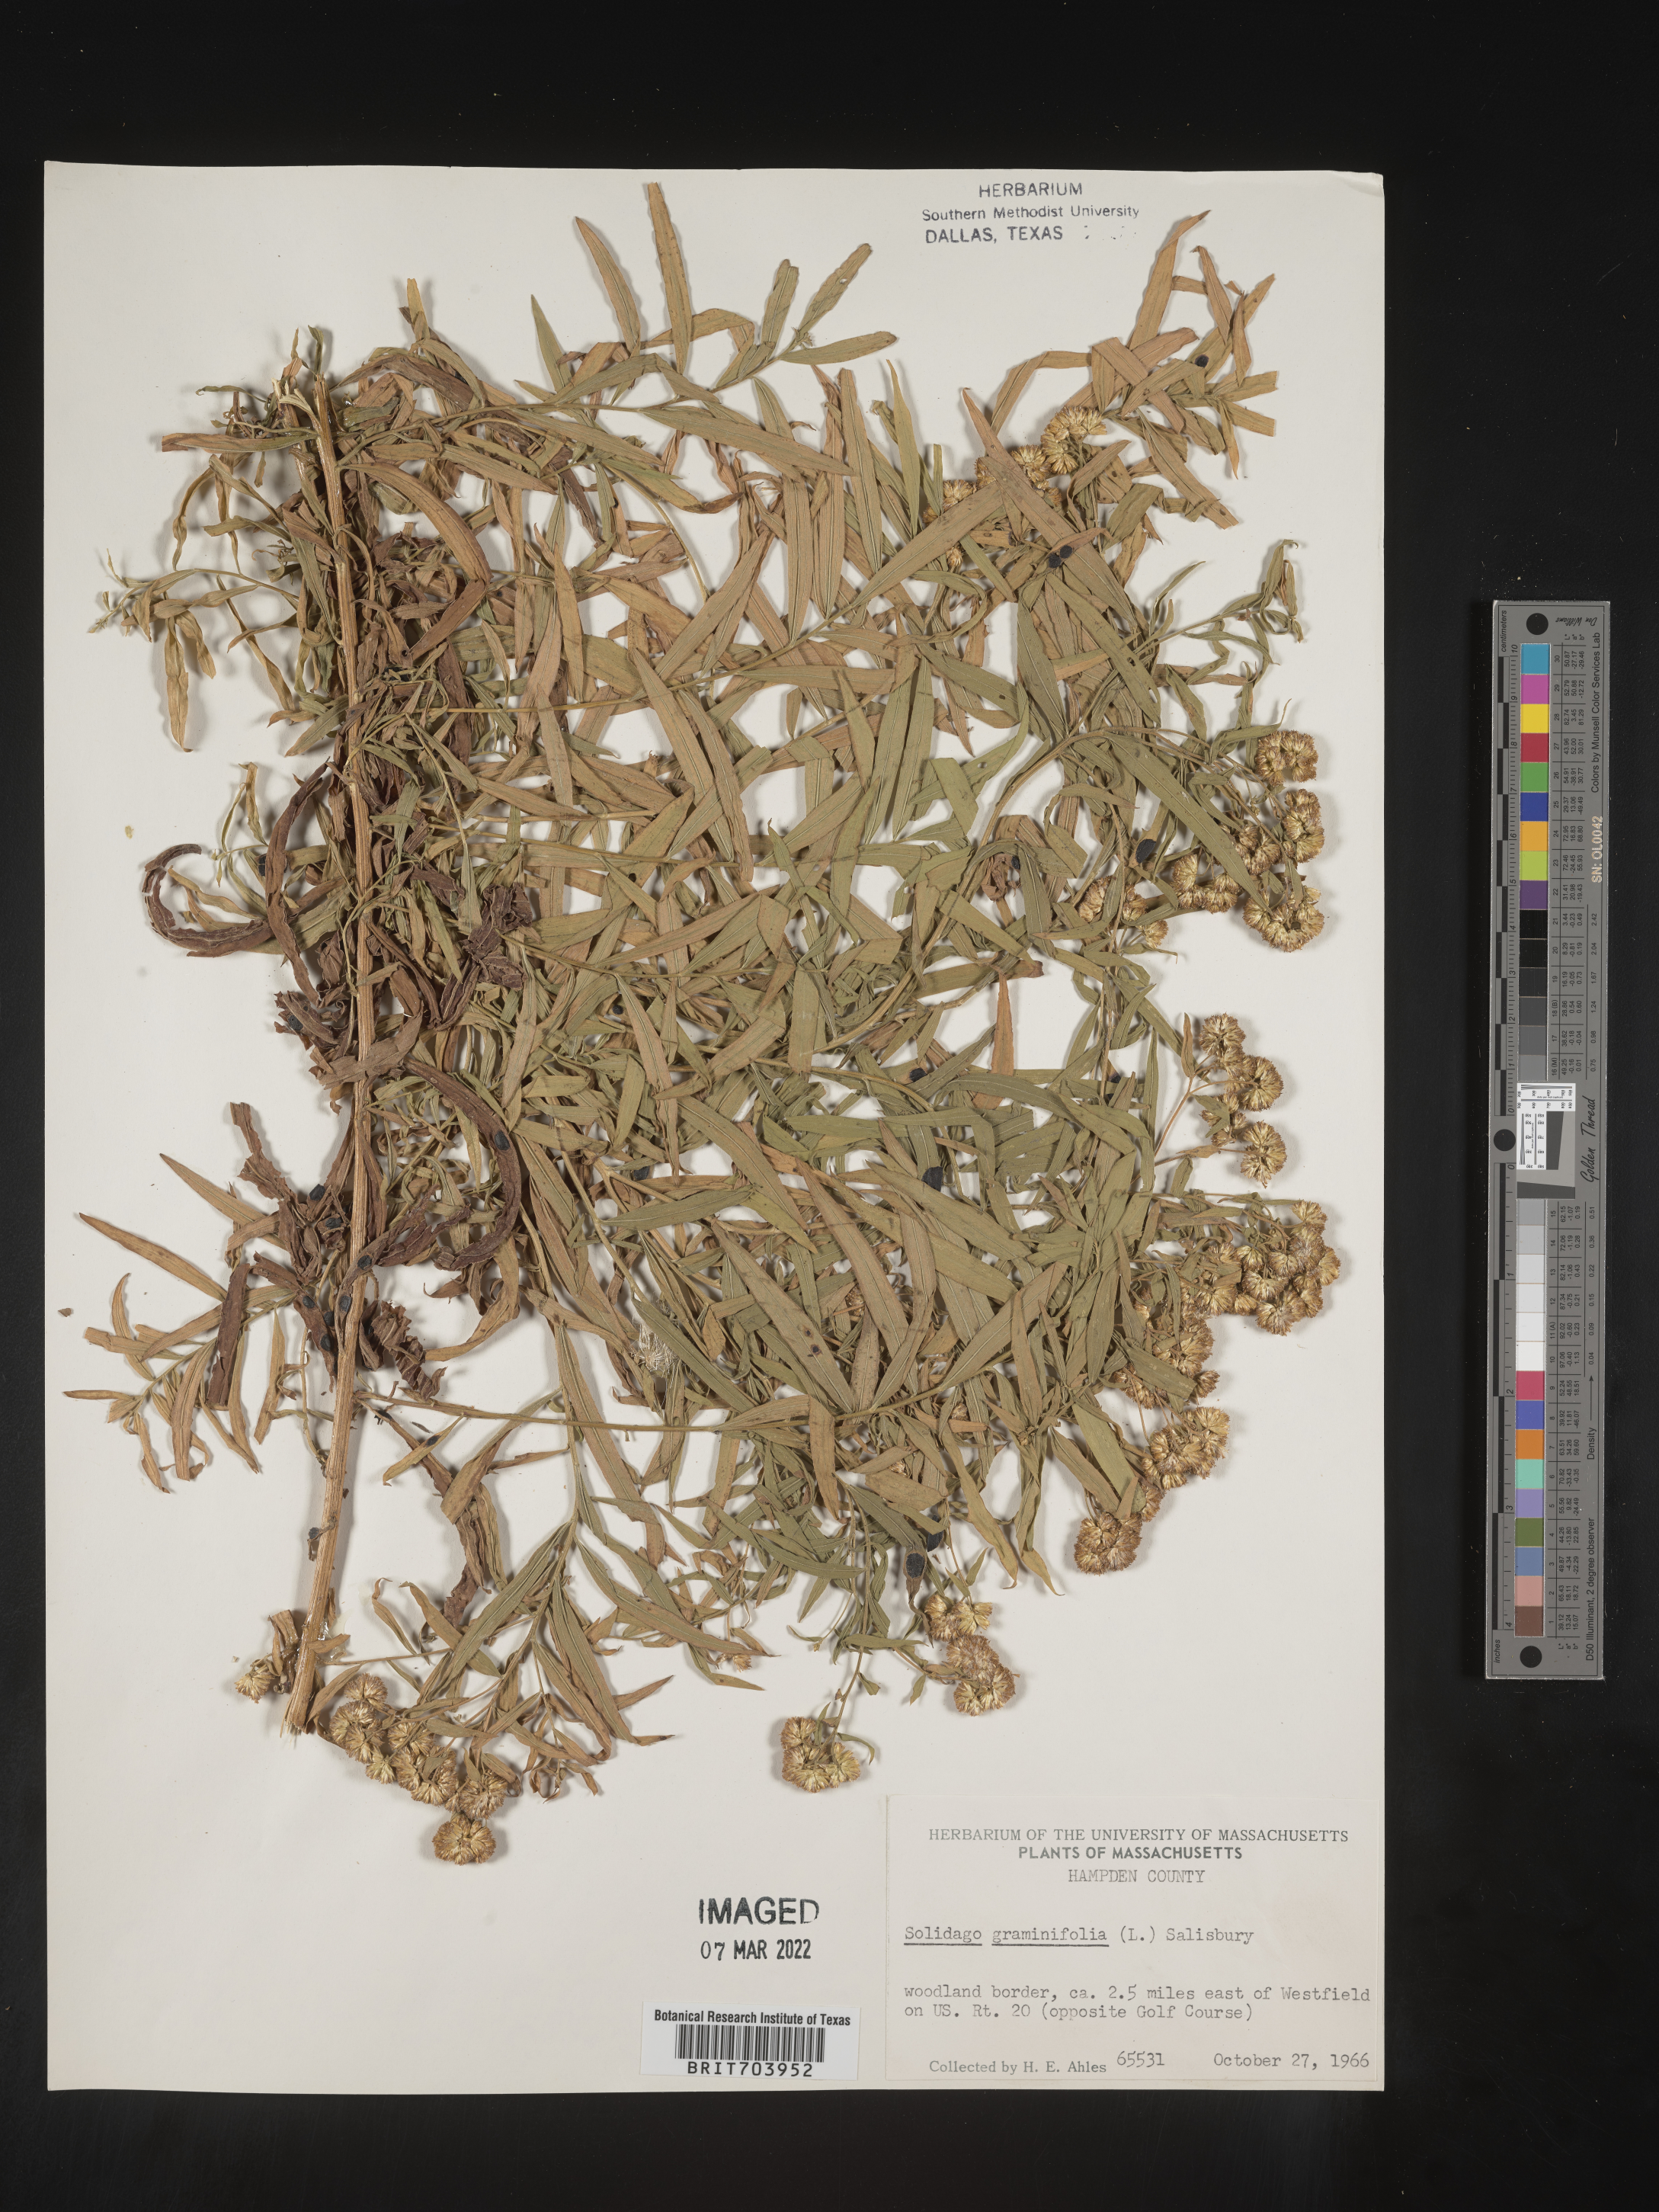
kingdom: Plantae
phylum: Tracheophyta
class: Magnoliopsida
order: Asterales
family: Asteraceae
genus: Euthamia
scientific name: Euthamia graminifolia
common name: Common goldentop
